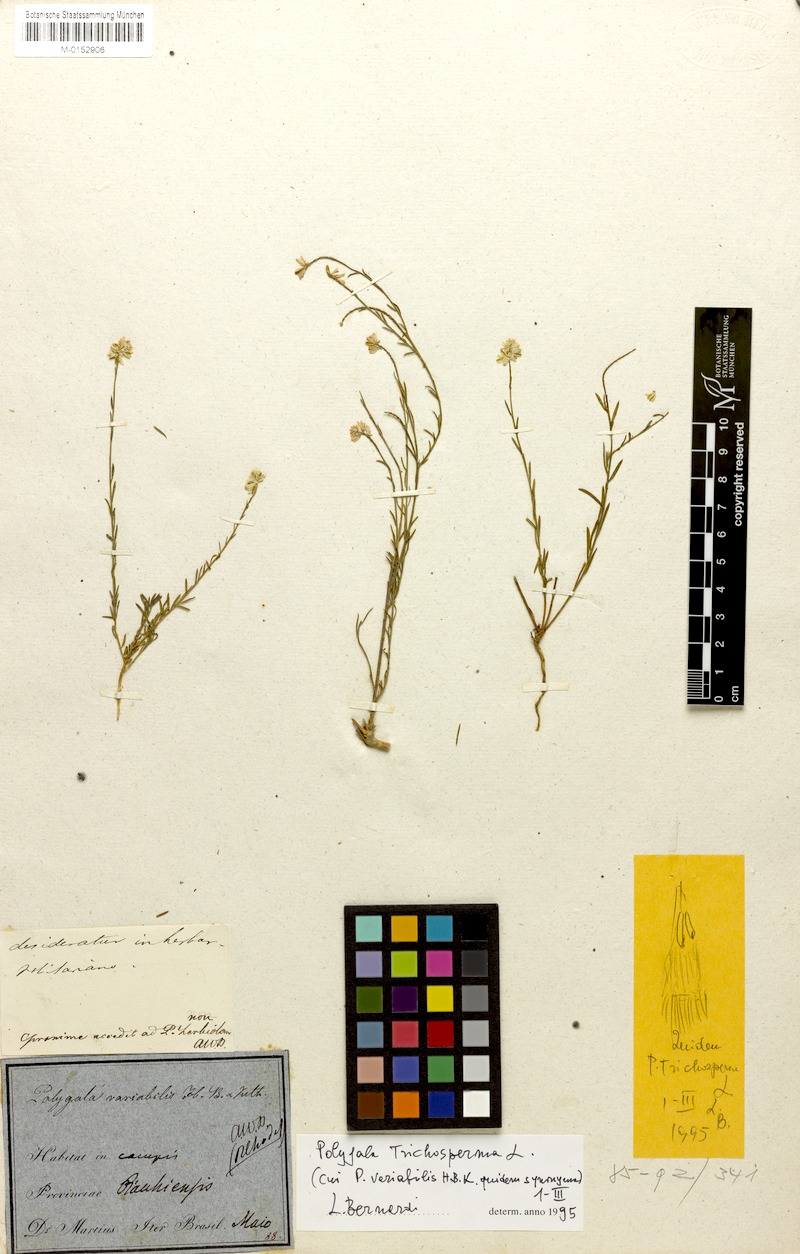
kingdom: Plantae
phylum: Tracheophyta
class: Magnoliopsida
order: Fabales
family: Polygalaceae
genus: Polygala
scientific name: Polygala trichosperma
